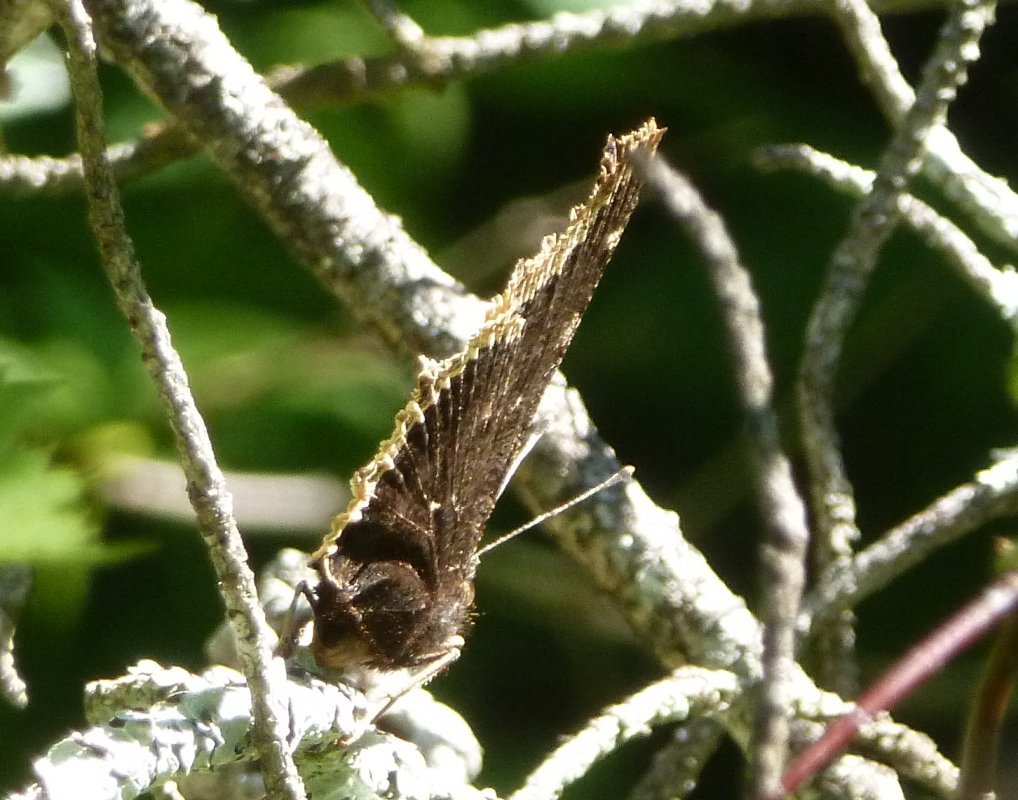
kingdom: Animalia
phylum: Arthropoda
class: Insecta
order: Lepidoptera
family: Nymphalidae
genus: Nymphalis
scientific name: Nymphalis antiopa
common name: Mourning Cloak
